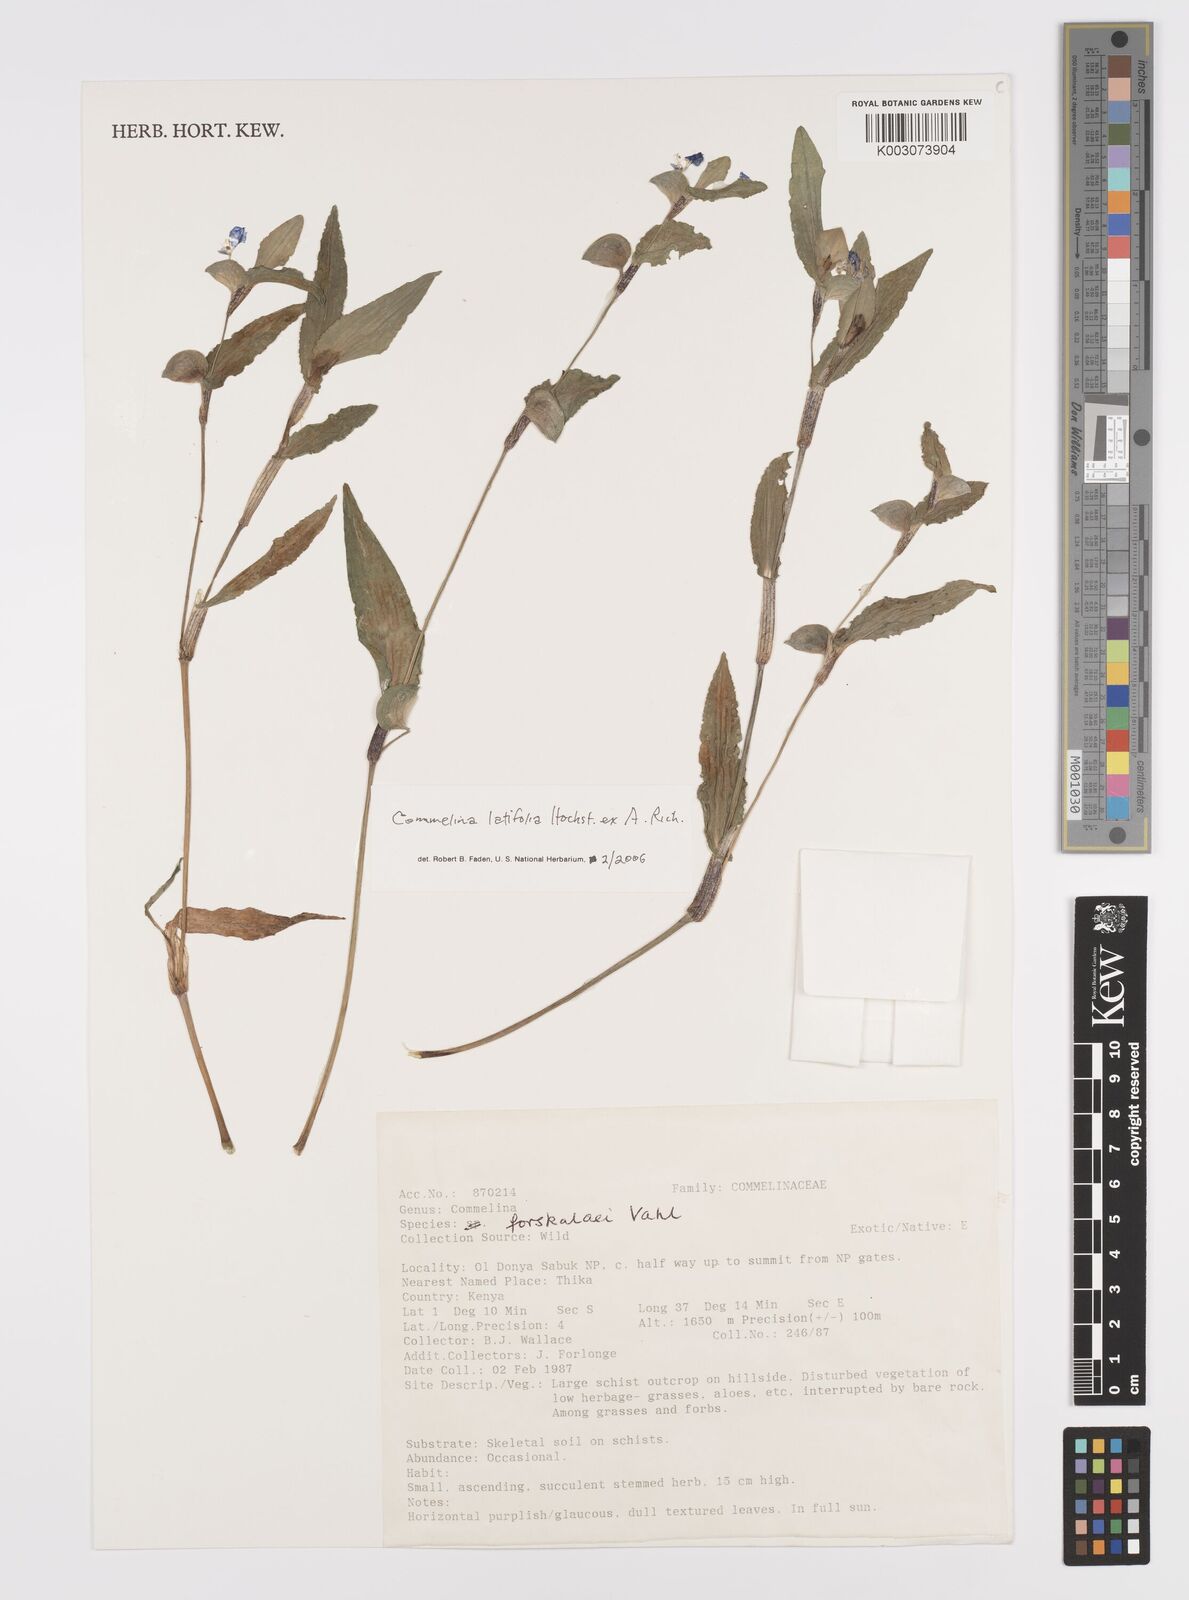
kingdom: Plantae
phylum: Tracheophyta
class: Liliopsida
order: Commelinales
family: Commelinaceae
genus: Commelina
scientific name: Commelina latifolia
